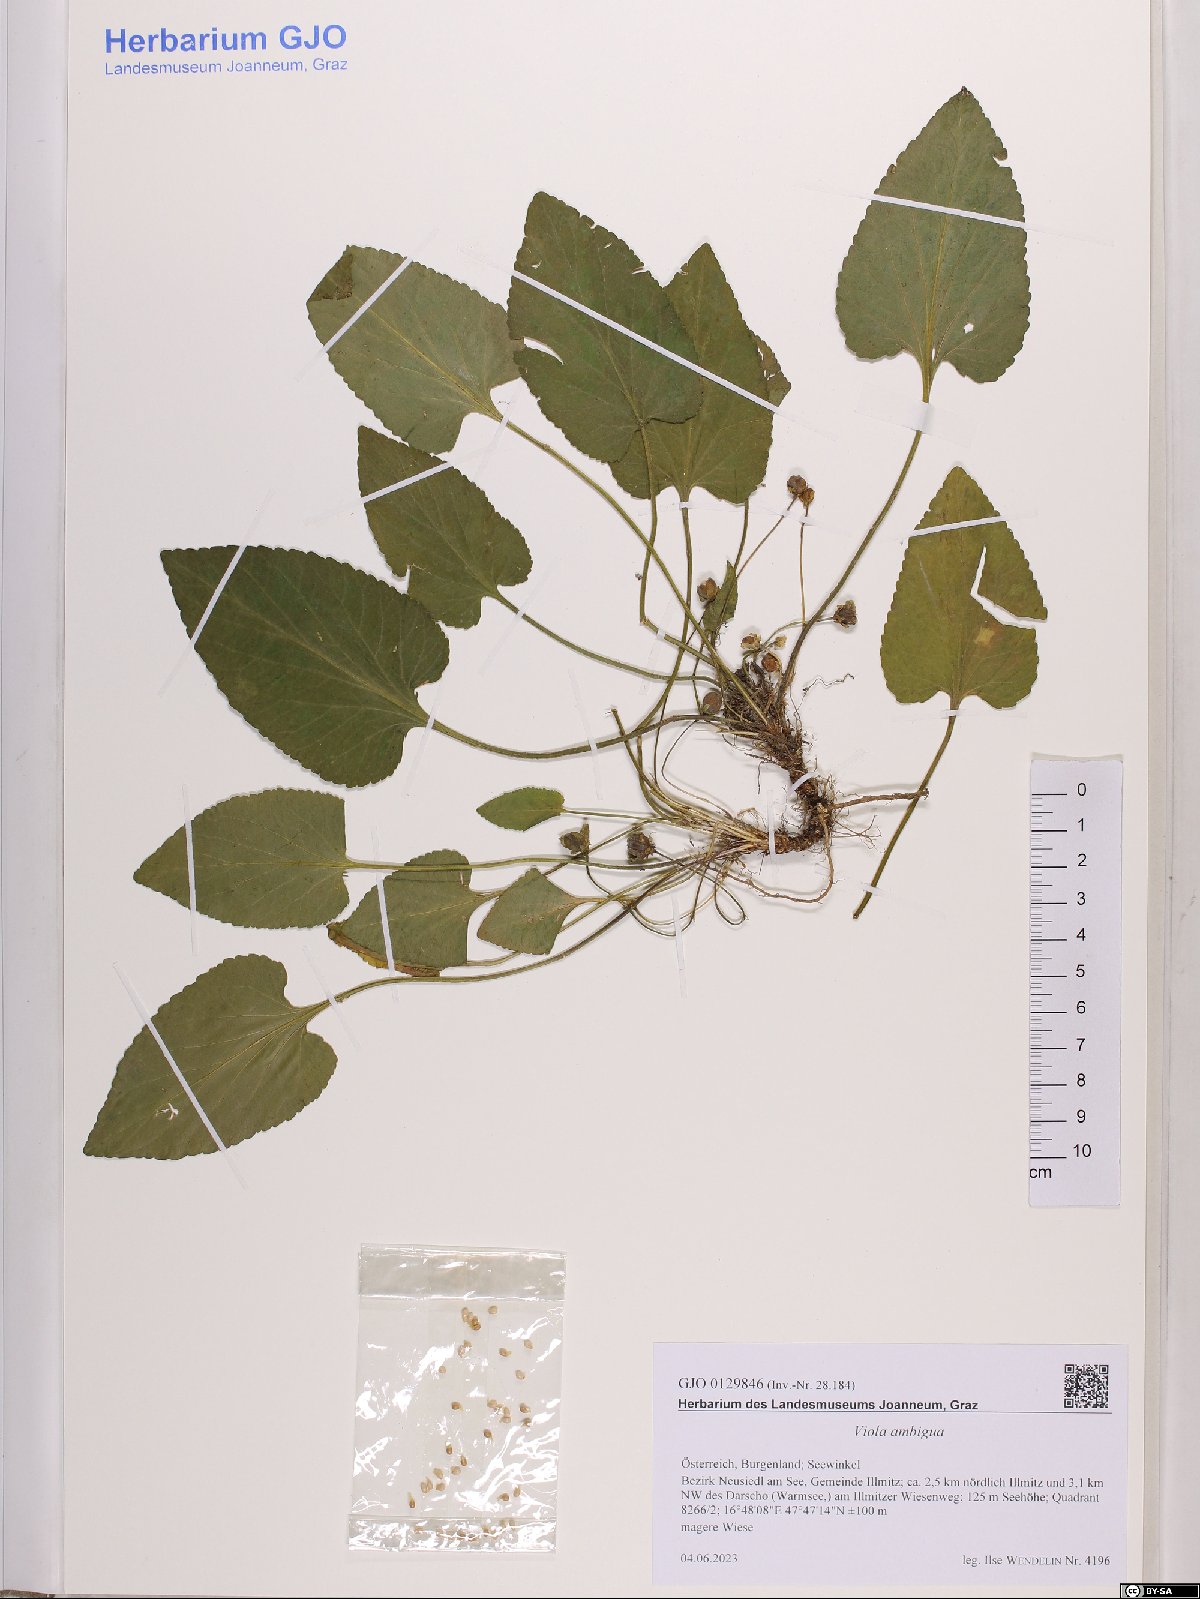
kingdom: Plantae
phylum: Tracheophyta
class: Magnoliopsida
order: Malpighiales
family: Violaceae
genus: Viola
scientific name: Viola ambigua
